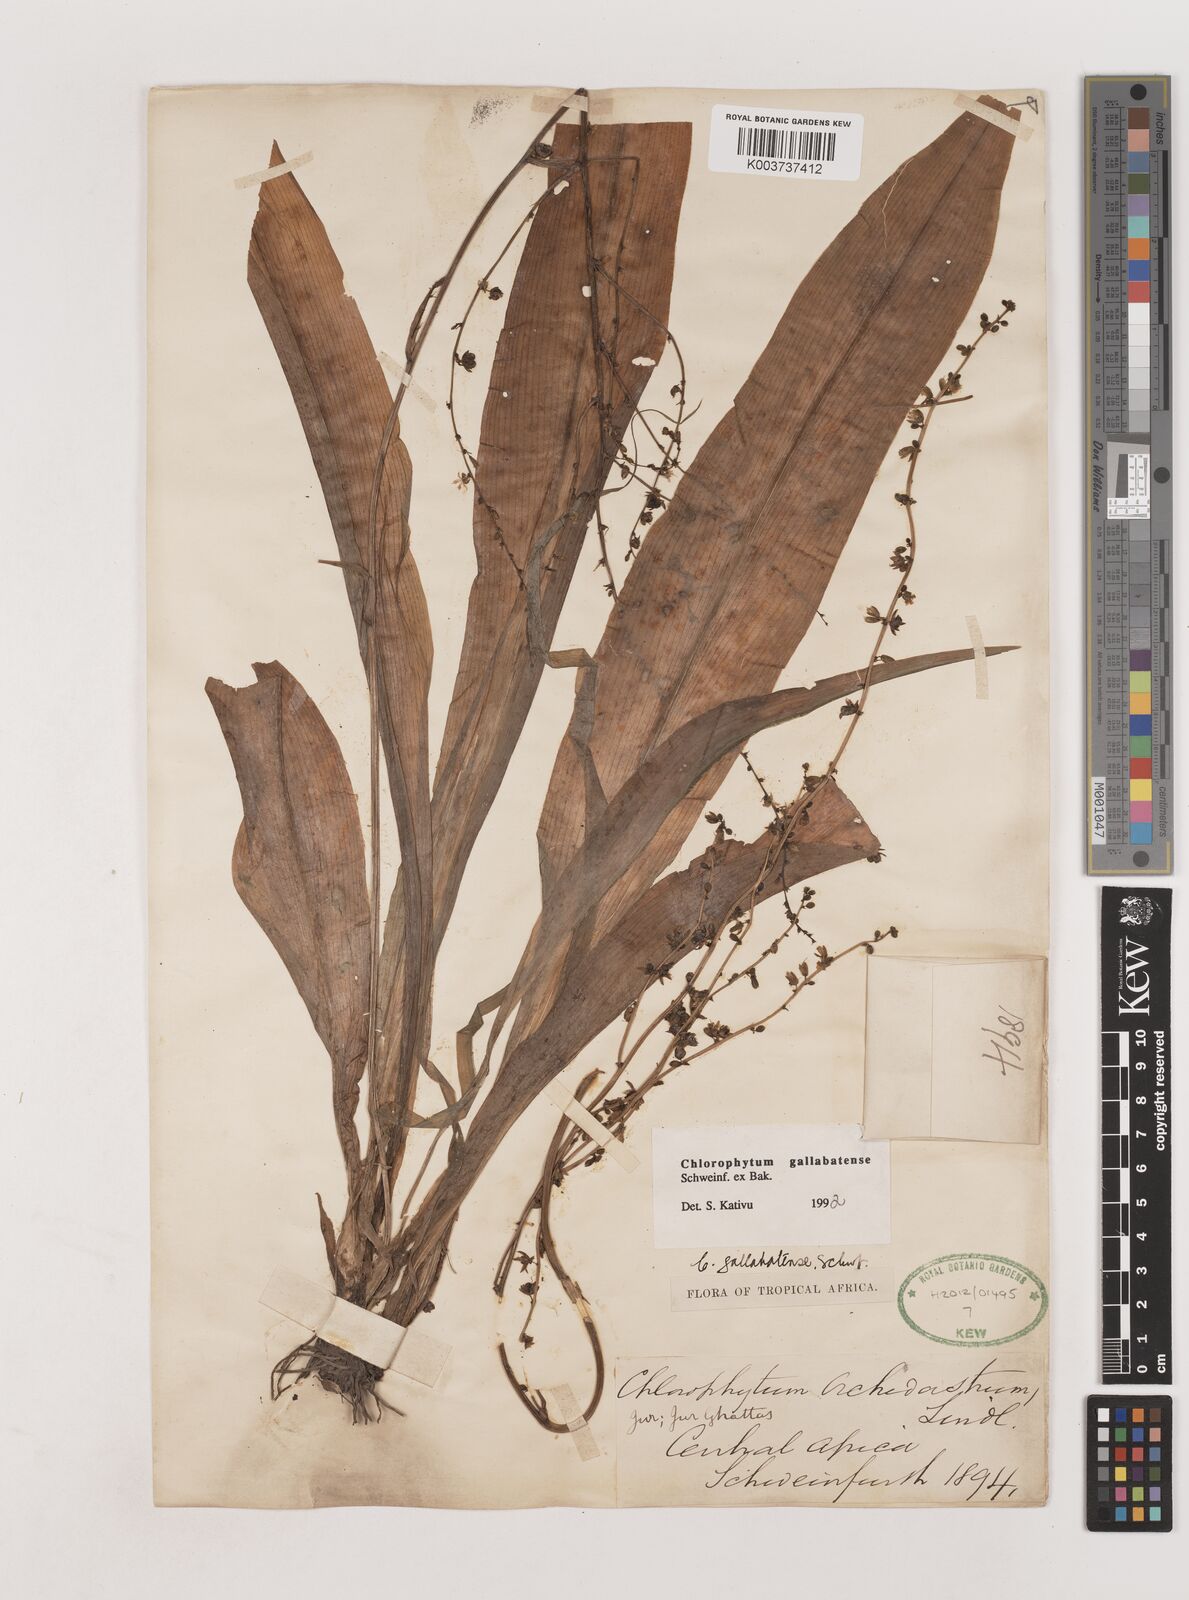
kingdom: Plantae
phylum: Tracheophyta
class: Liliopsida
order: Asparagales
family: Asparagaceae
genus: Chlorophytum
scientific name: Chlorophytum gallabatense
